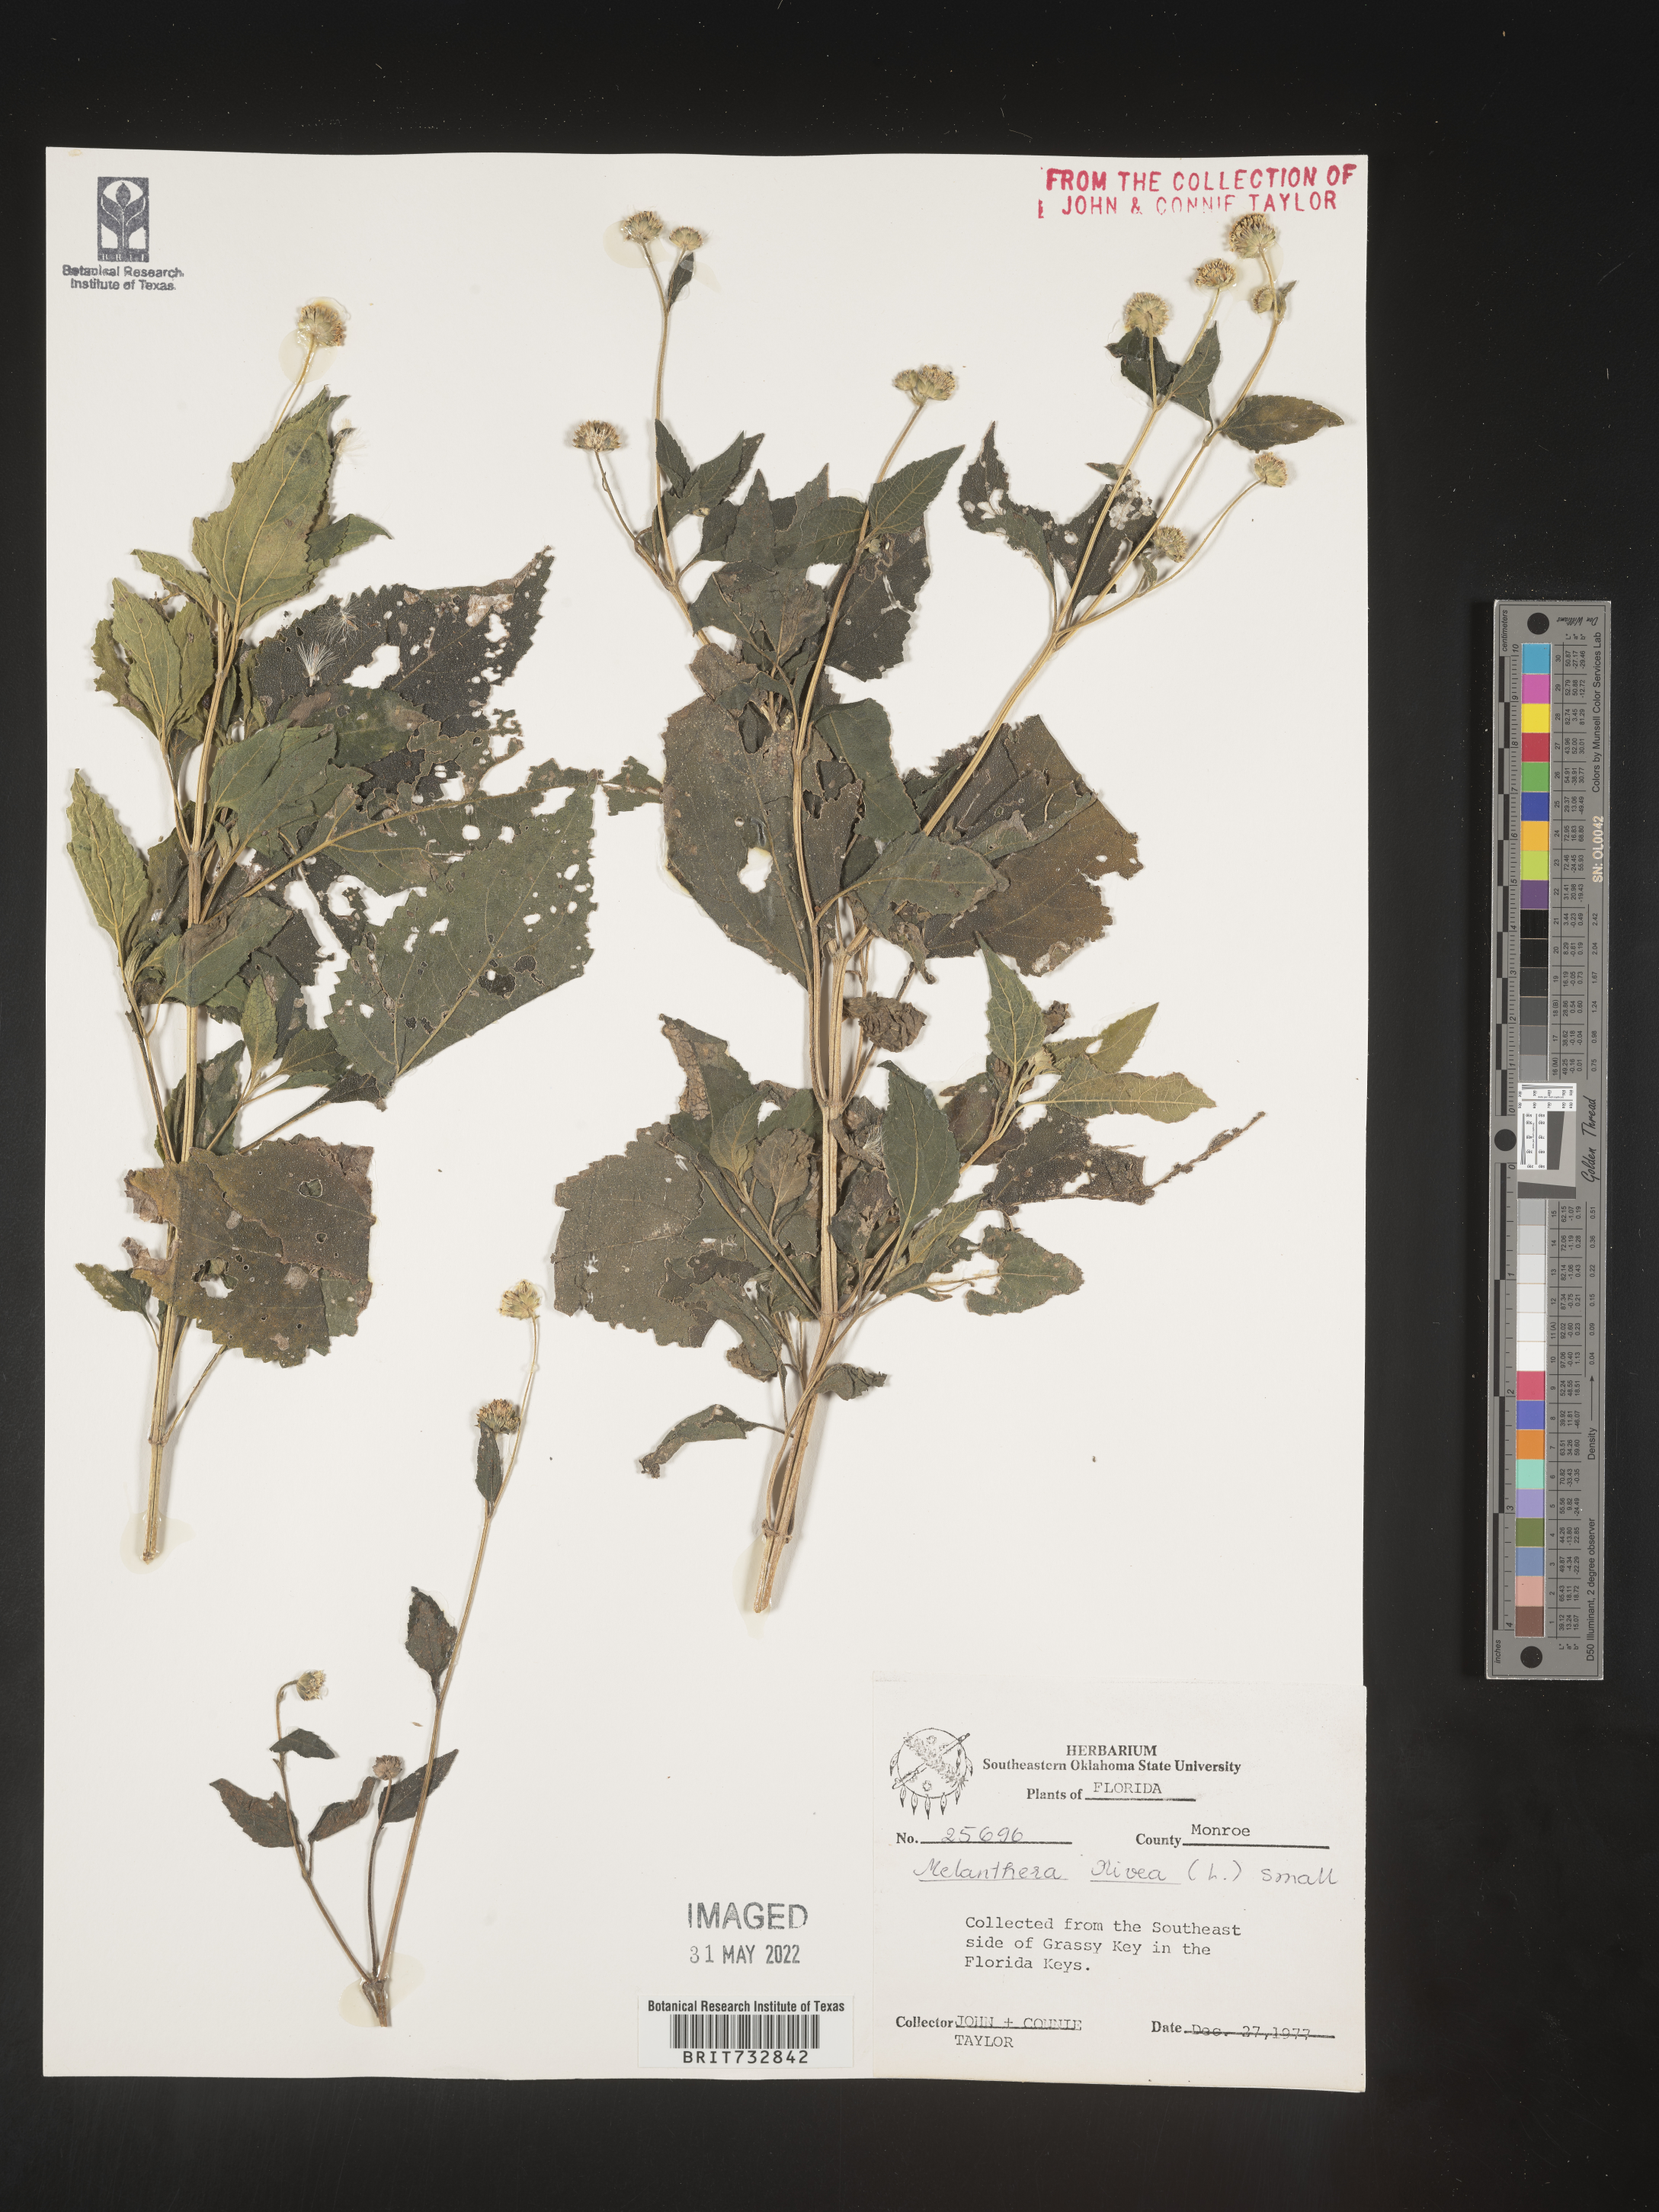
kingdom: Plantae
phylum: Tracheophyta
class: Magnoliopsida
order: Asterales
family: Asteraceae
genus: Melanthera
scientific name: Melanthera nivea
